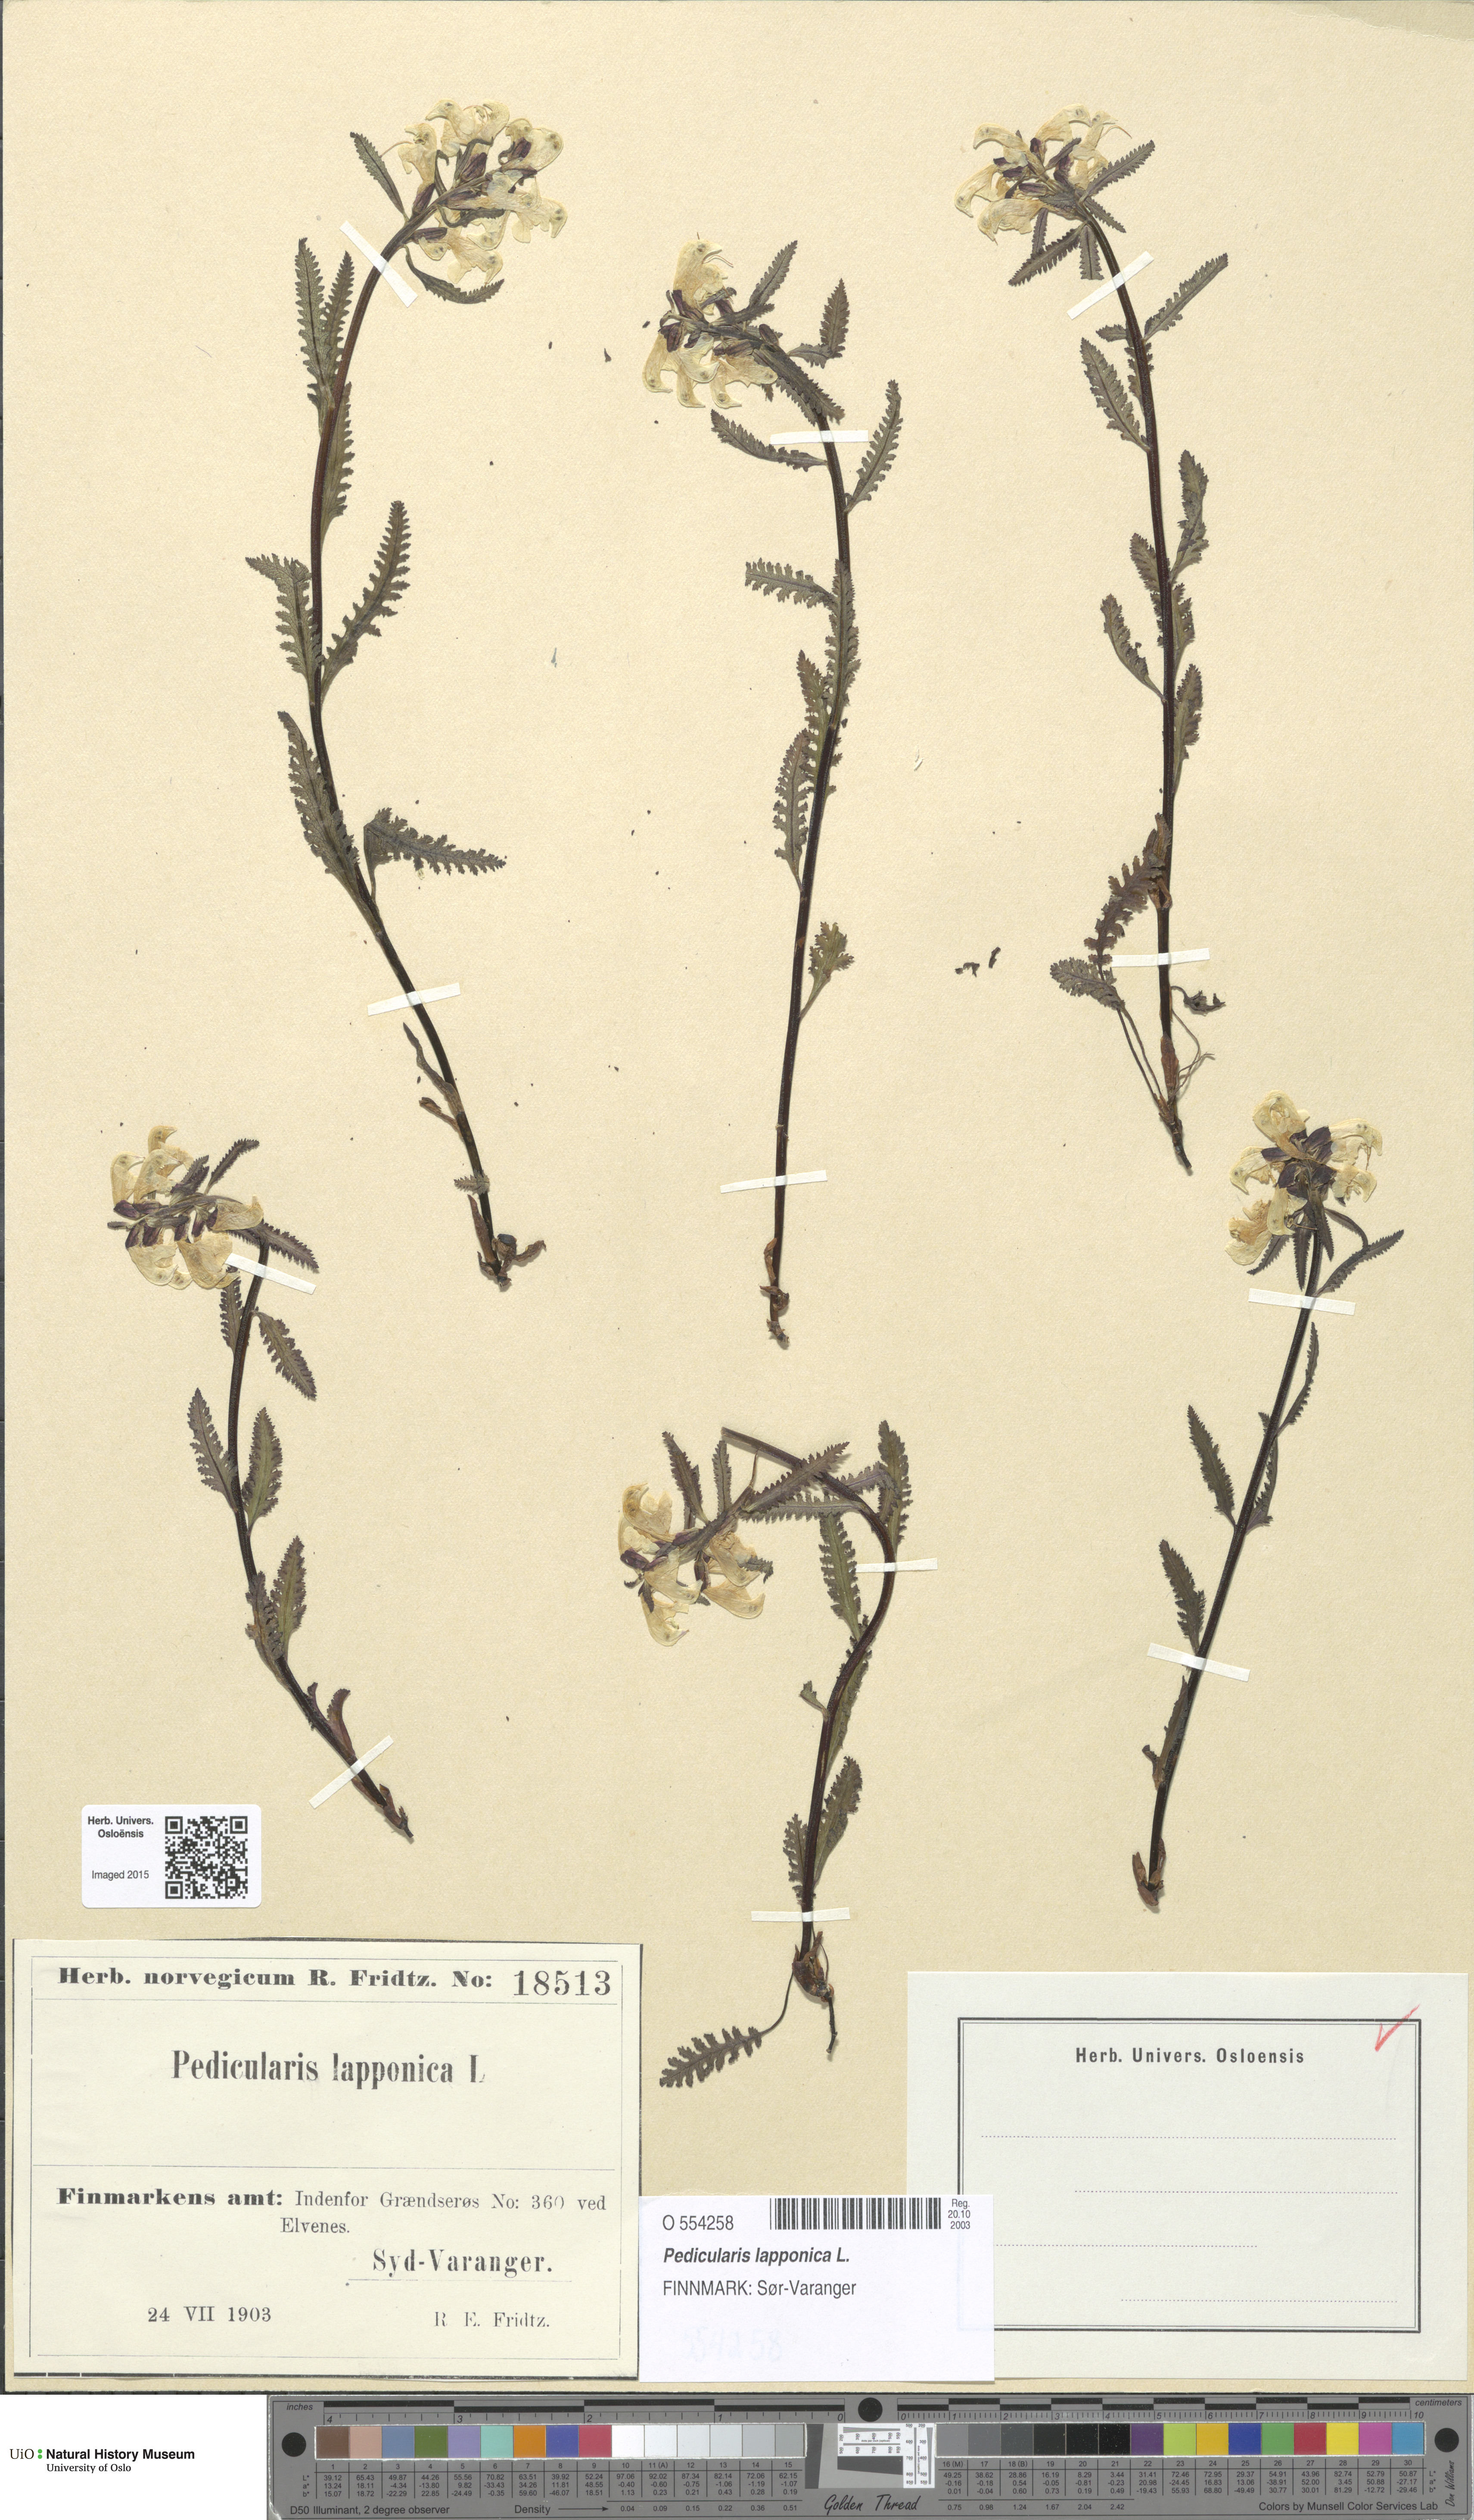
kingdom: Plantae
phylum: Tracheophyta
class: Magnoliopsida
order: Lamiales
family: Orobanchaceae
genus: Pedicularis
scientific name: Pedicularis lapponica
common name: Lapland lousewort
